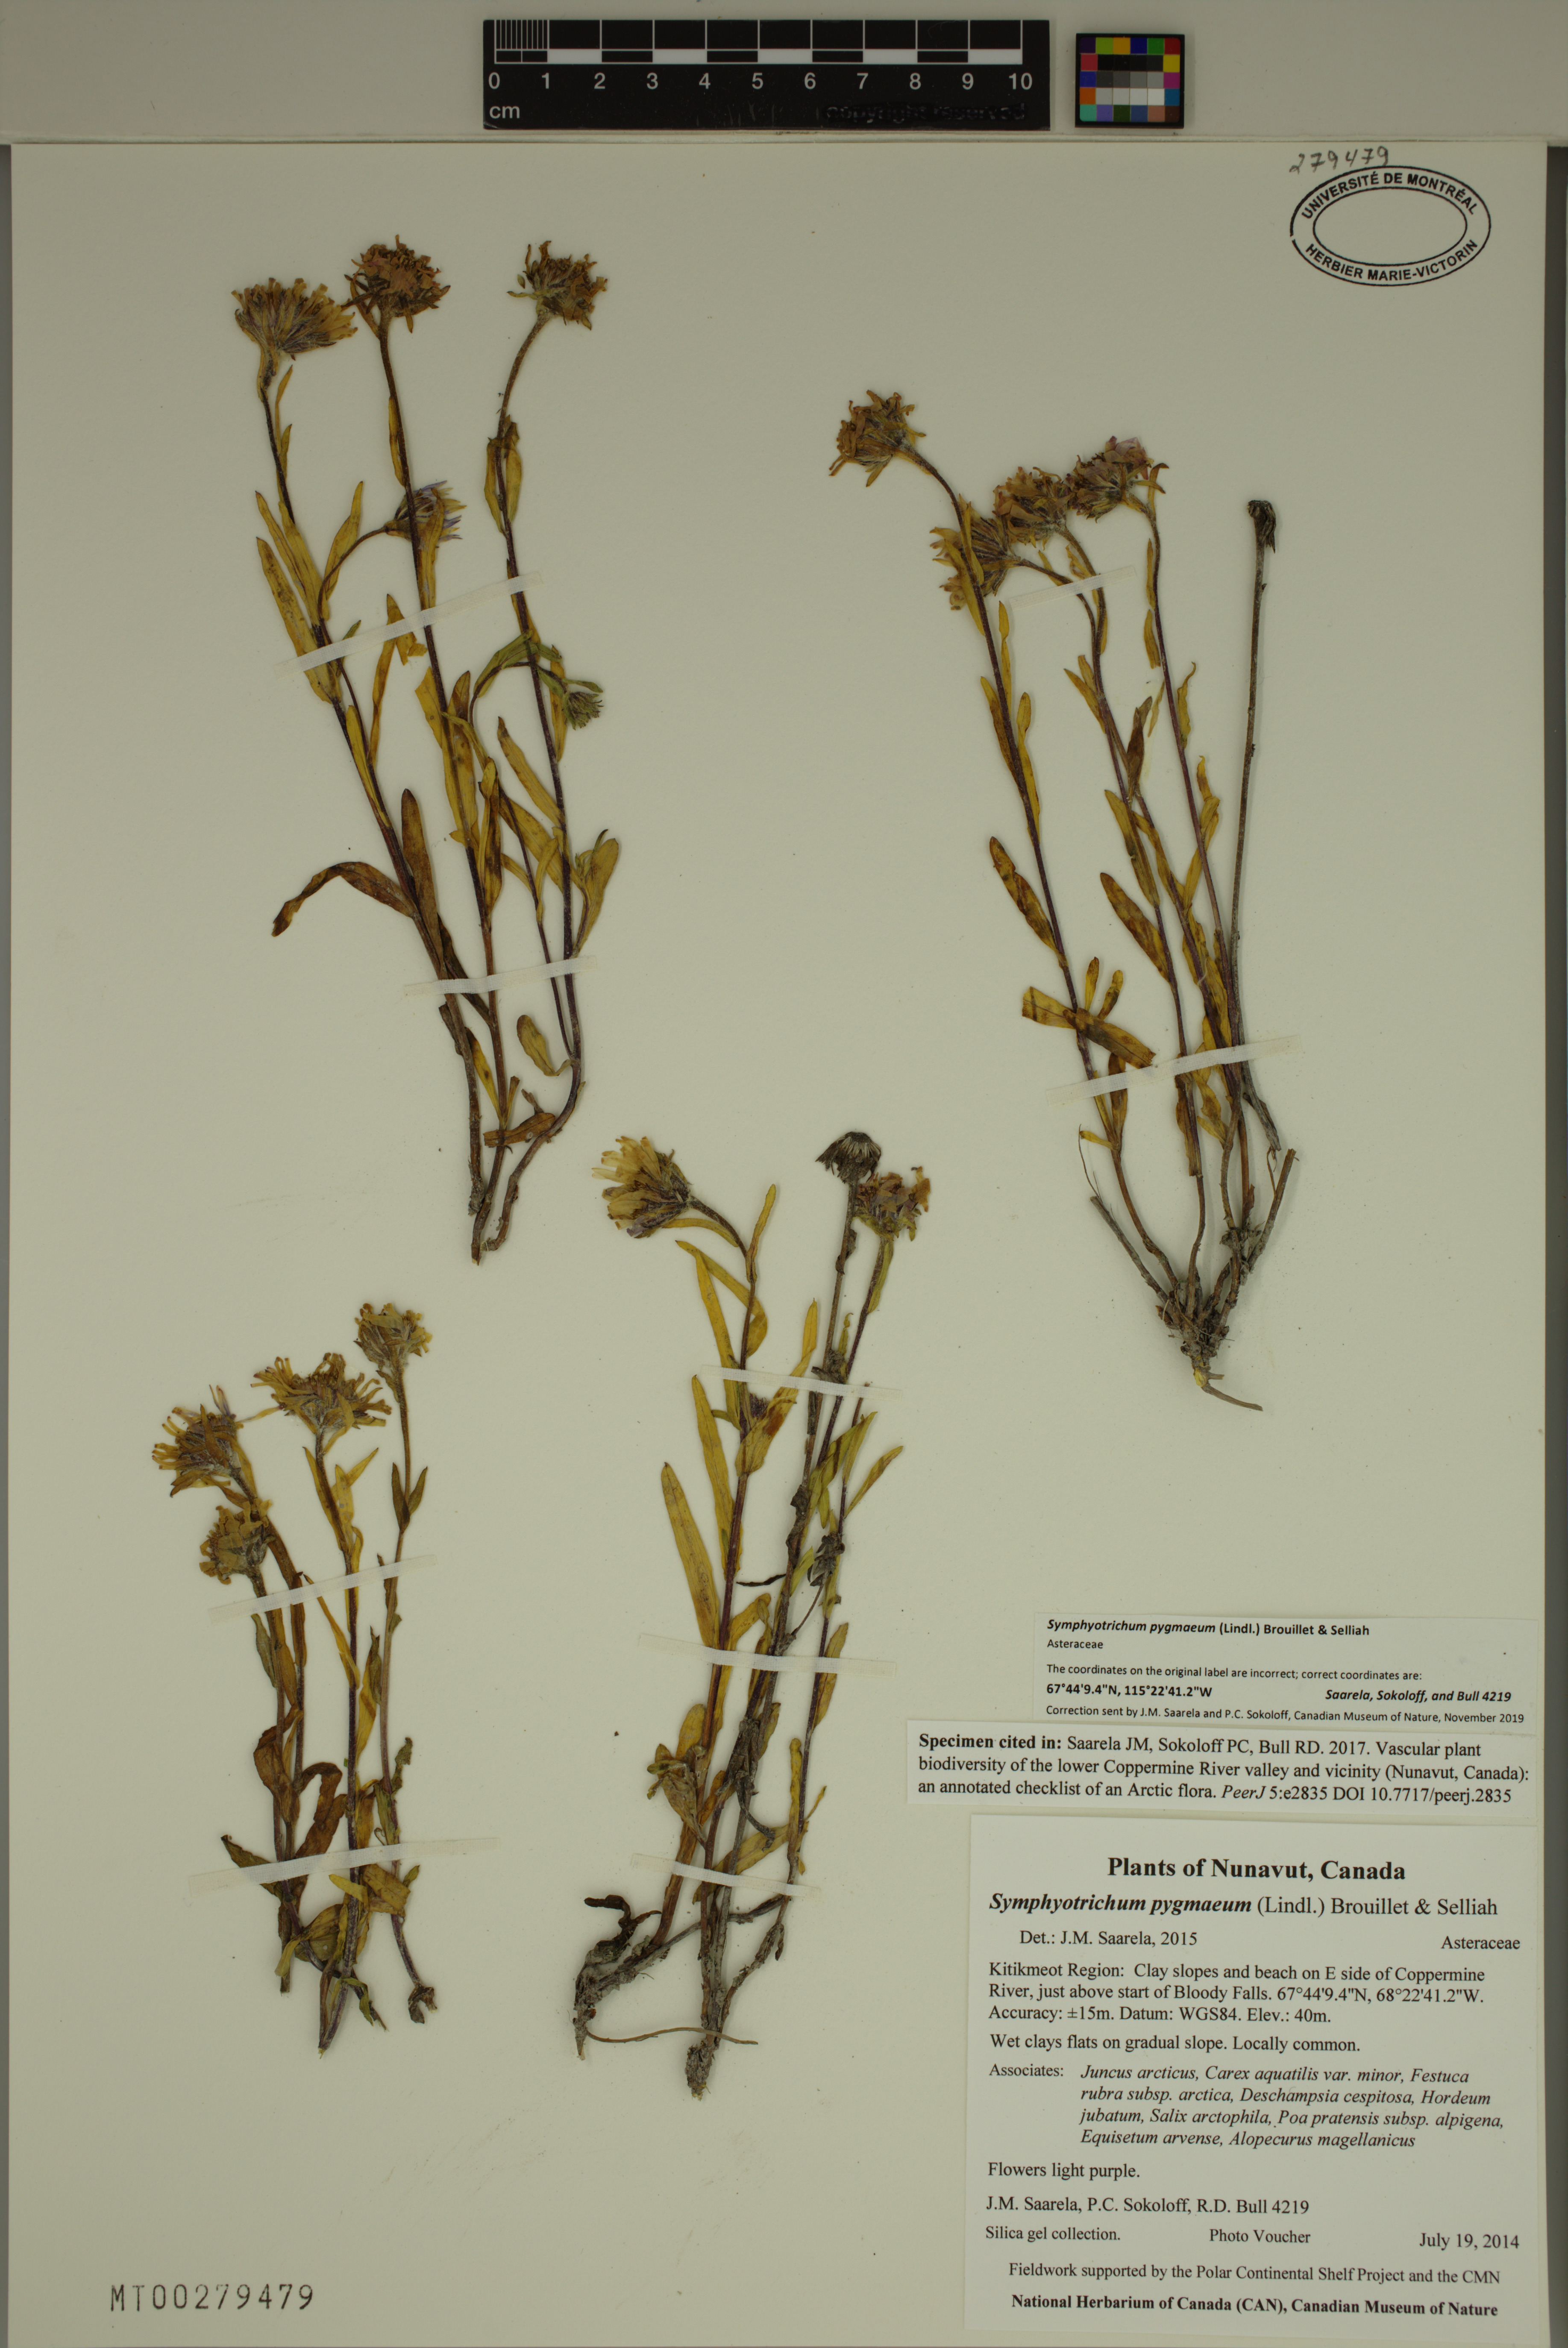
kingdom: Plantae
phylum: Tracheophyta
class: Magnoliopsida
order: Asterales
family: Asteraceae
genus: Symphyotrichum
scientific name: Symphyotrichum pygmaeum
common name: Pygmy aster
